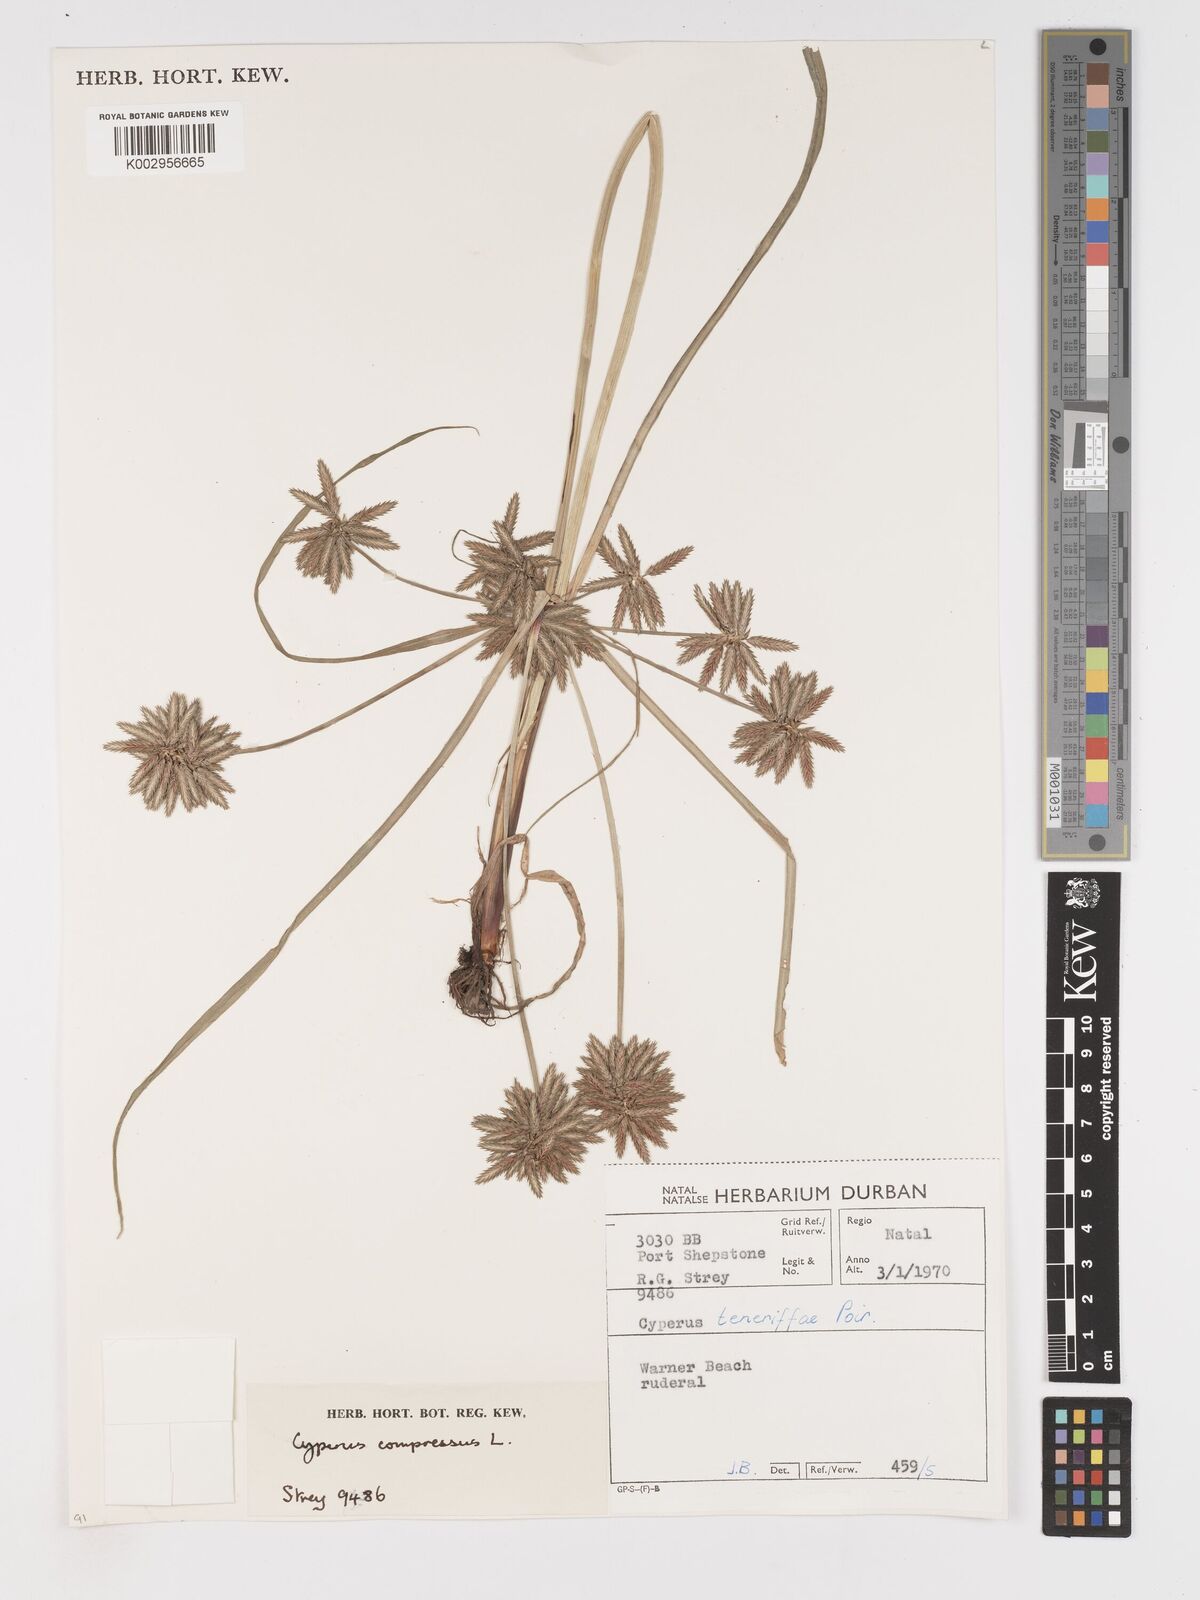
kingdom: Plantae
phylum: Tracheophyta
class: Liliopsida
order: Poales
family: Cyperaceae
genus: Cyperus
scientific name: Cyperus compressus
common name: Poorland flatsedge
